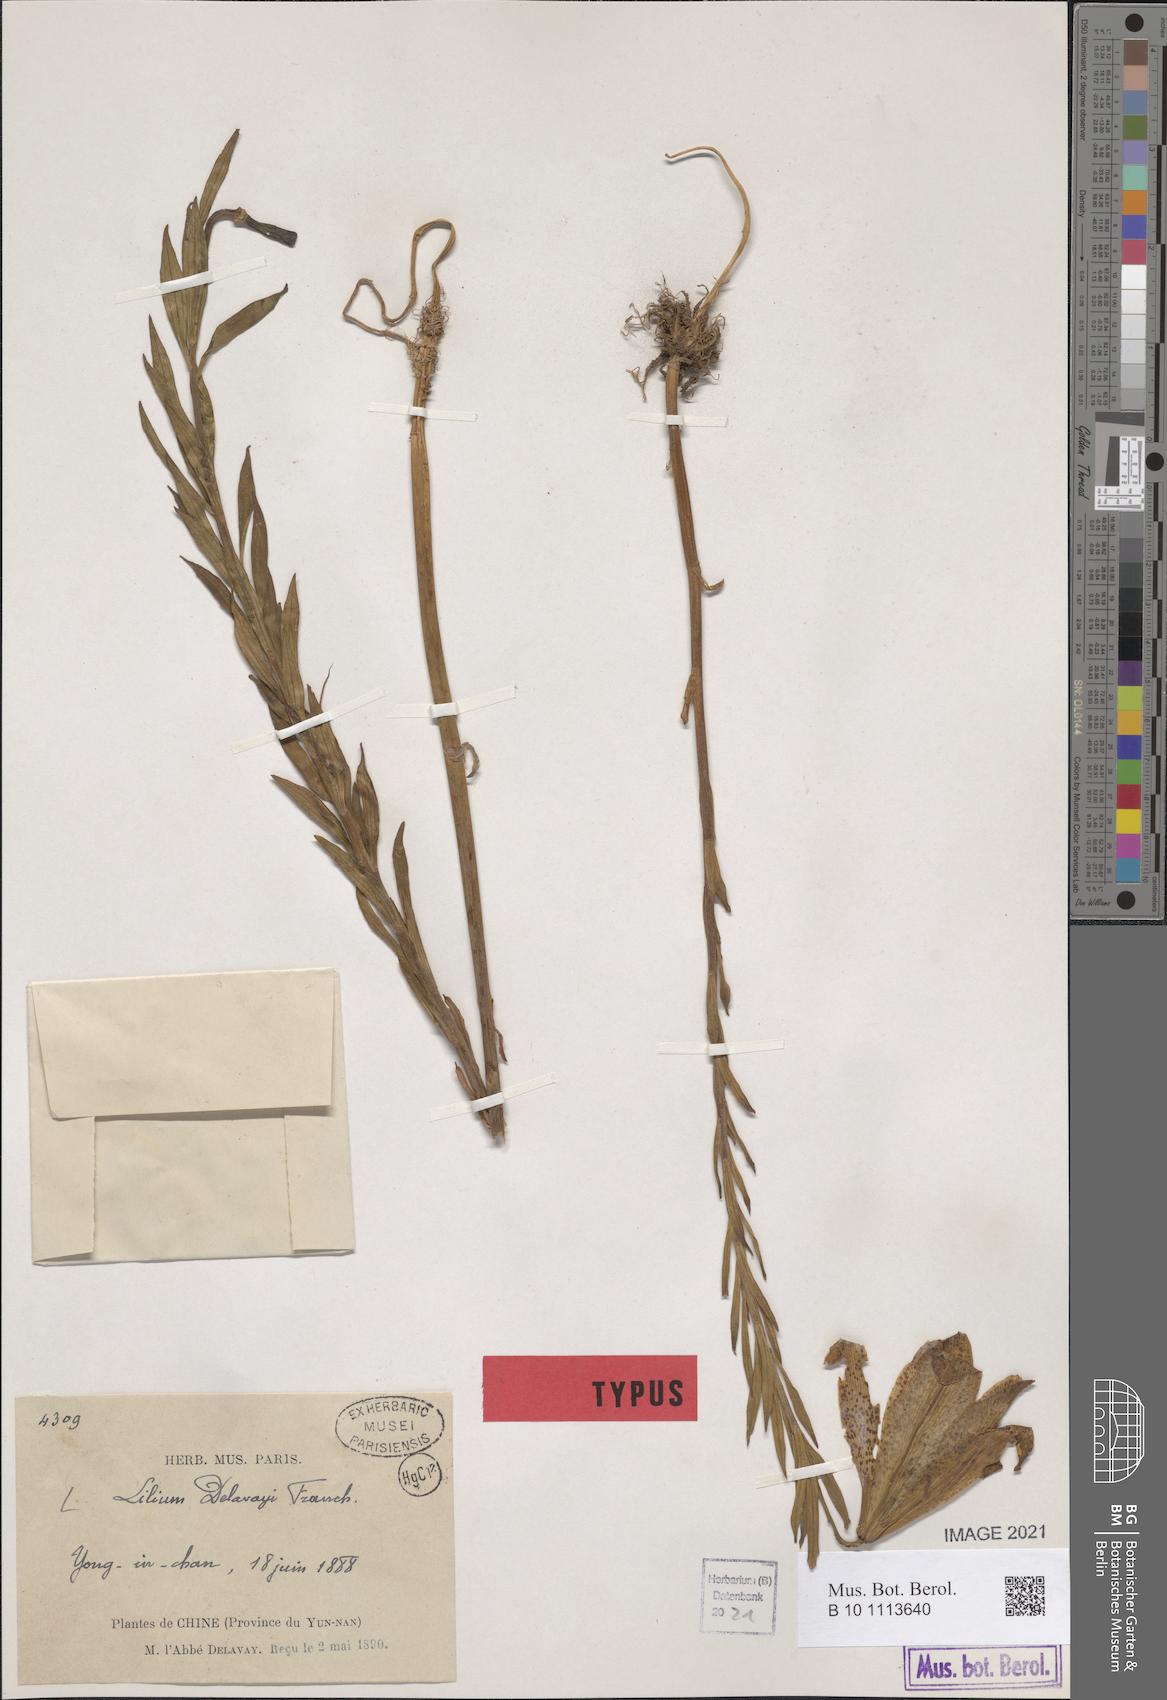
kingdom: Plantae
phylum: Tracheophyta
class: Liliopsida
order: Liliales
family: Liliaceae
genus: Lilium
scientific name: Lilium bakerianum
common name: Baker's lily
